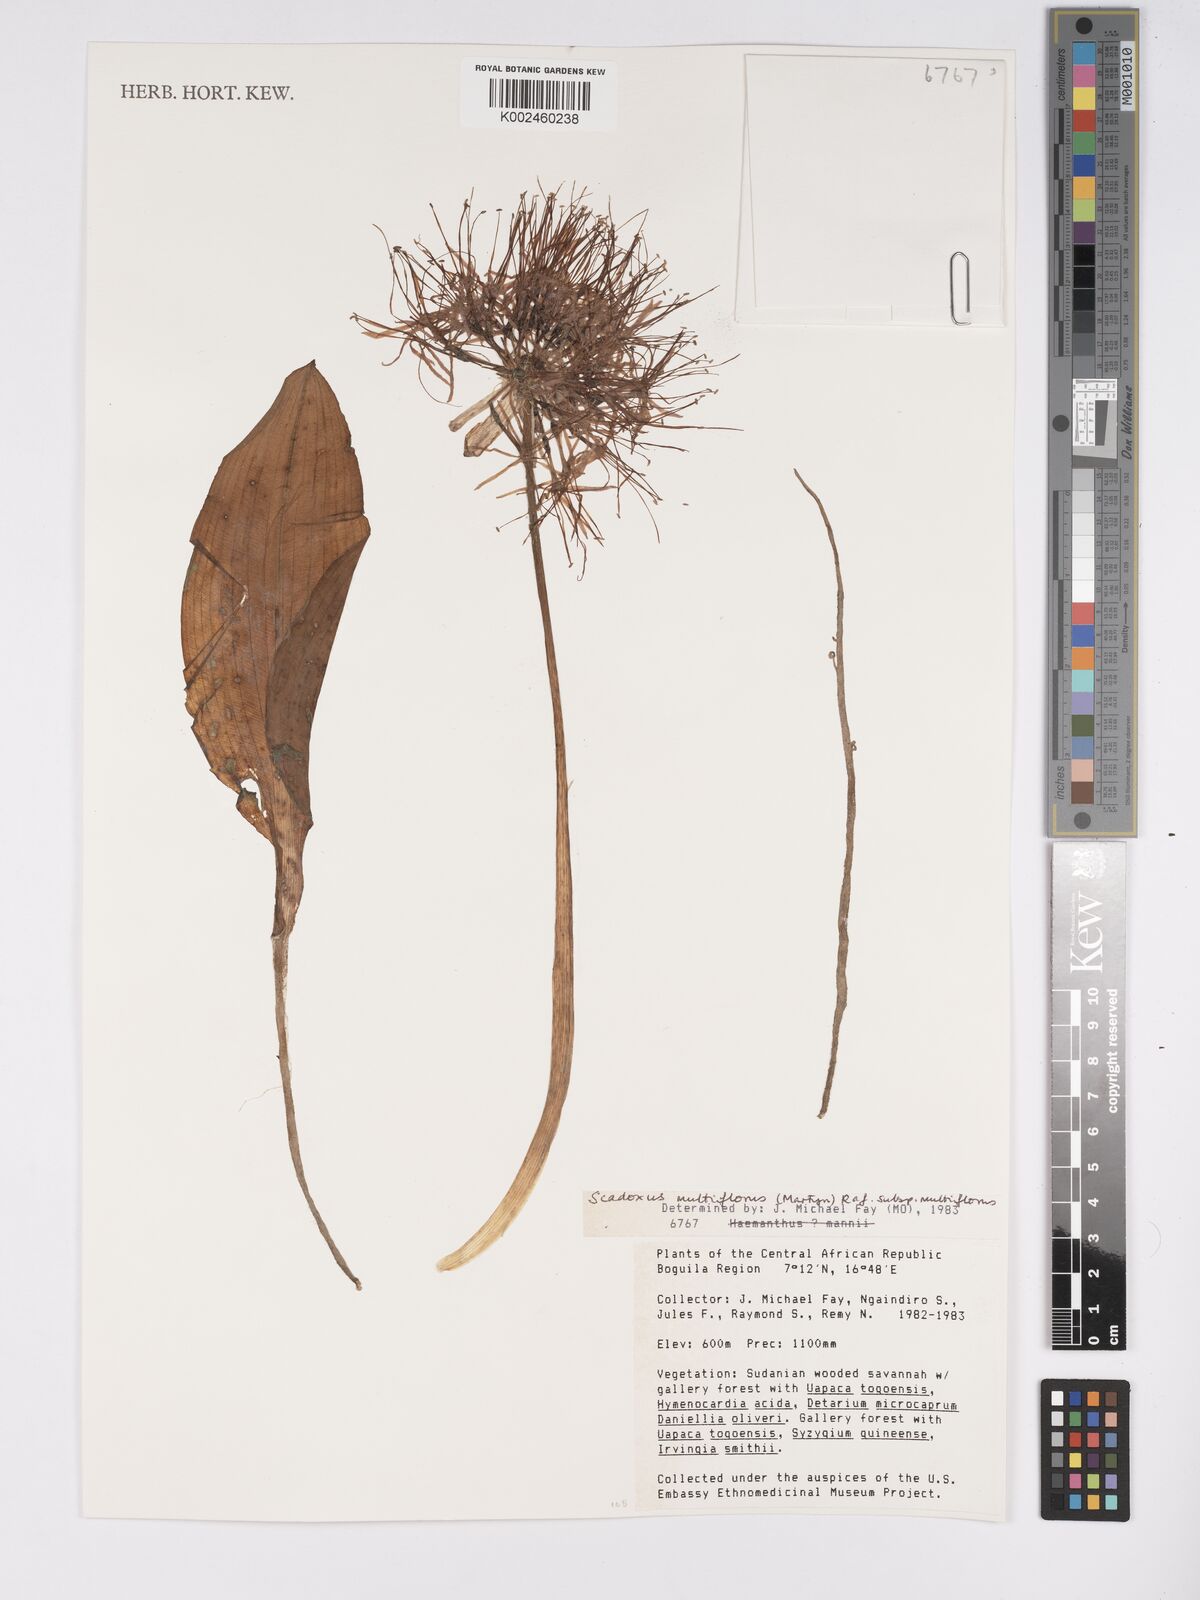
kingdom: Plantae
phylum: Tracheophyta
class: Liliopsida
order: Asparagales
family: Amaryllidaceae
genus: Scadoxus
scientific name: Scadoxus multiflorus
